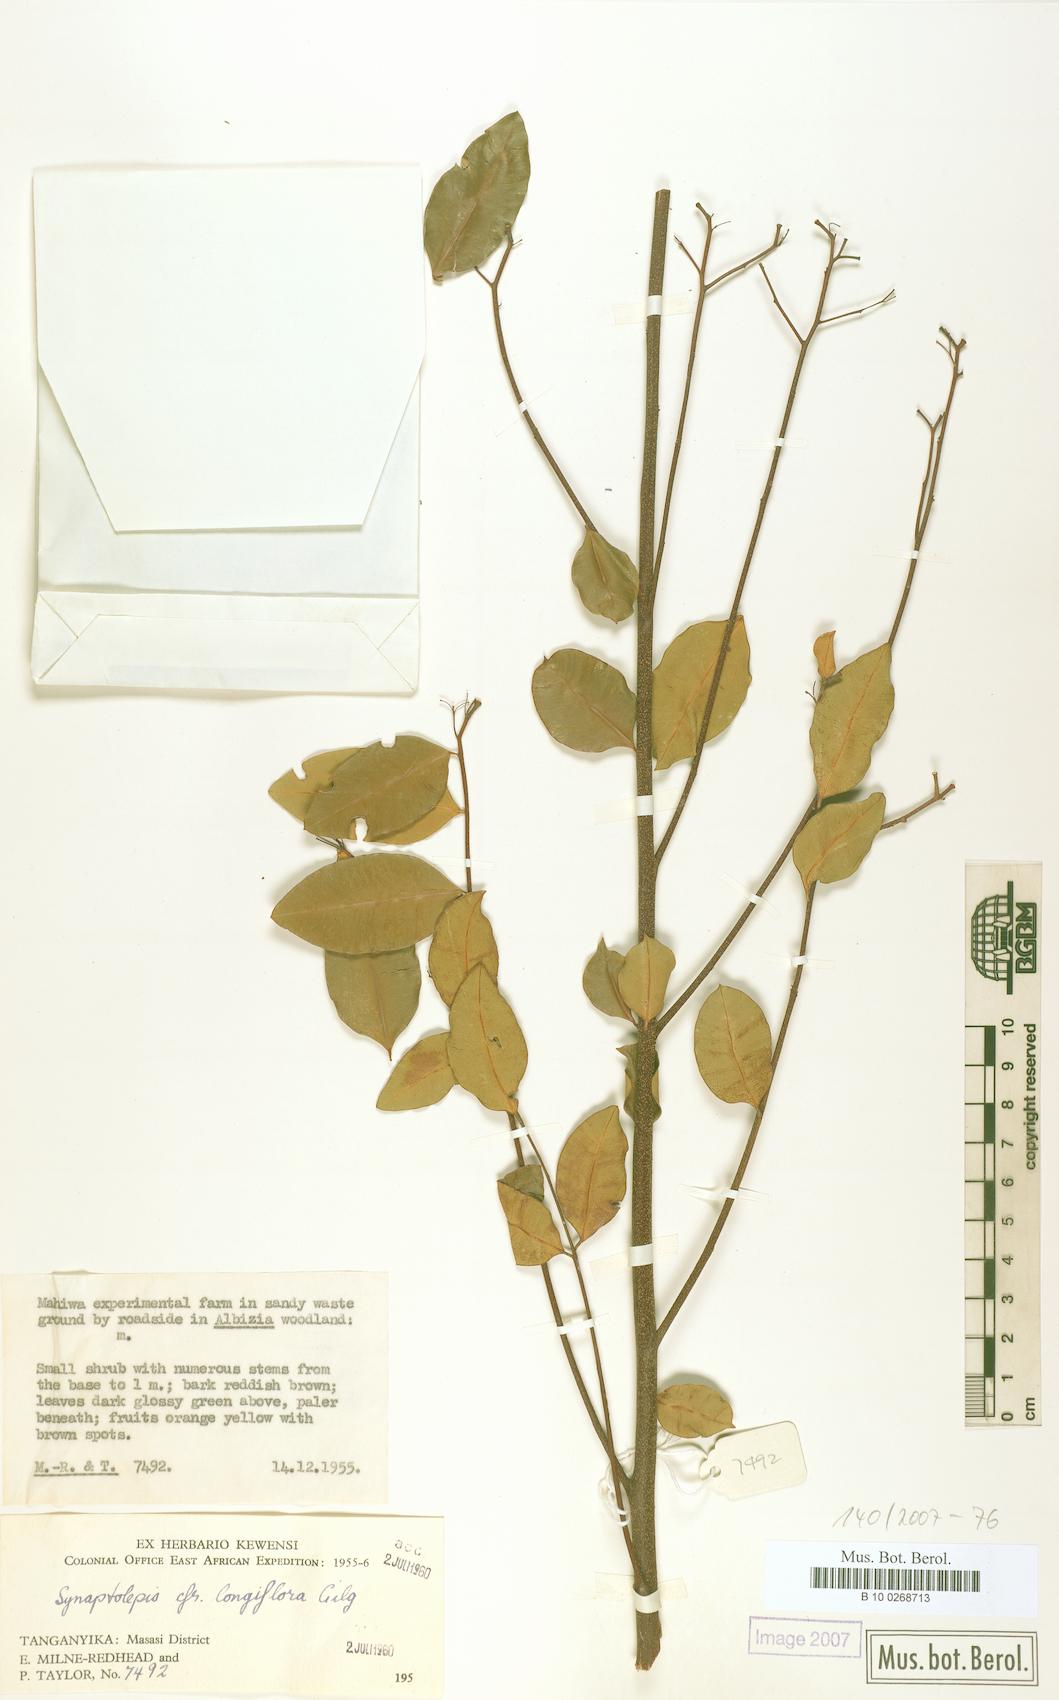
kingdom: Plantae
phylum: Tracheophyta
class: Magnoliopsida
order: Malvales
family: Thymelaeaceae
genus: Synaptolepis
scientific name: Synaptolepis alternifolia
